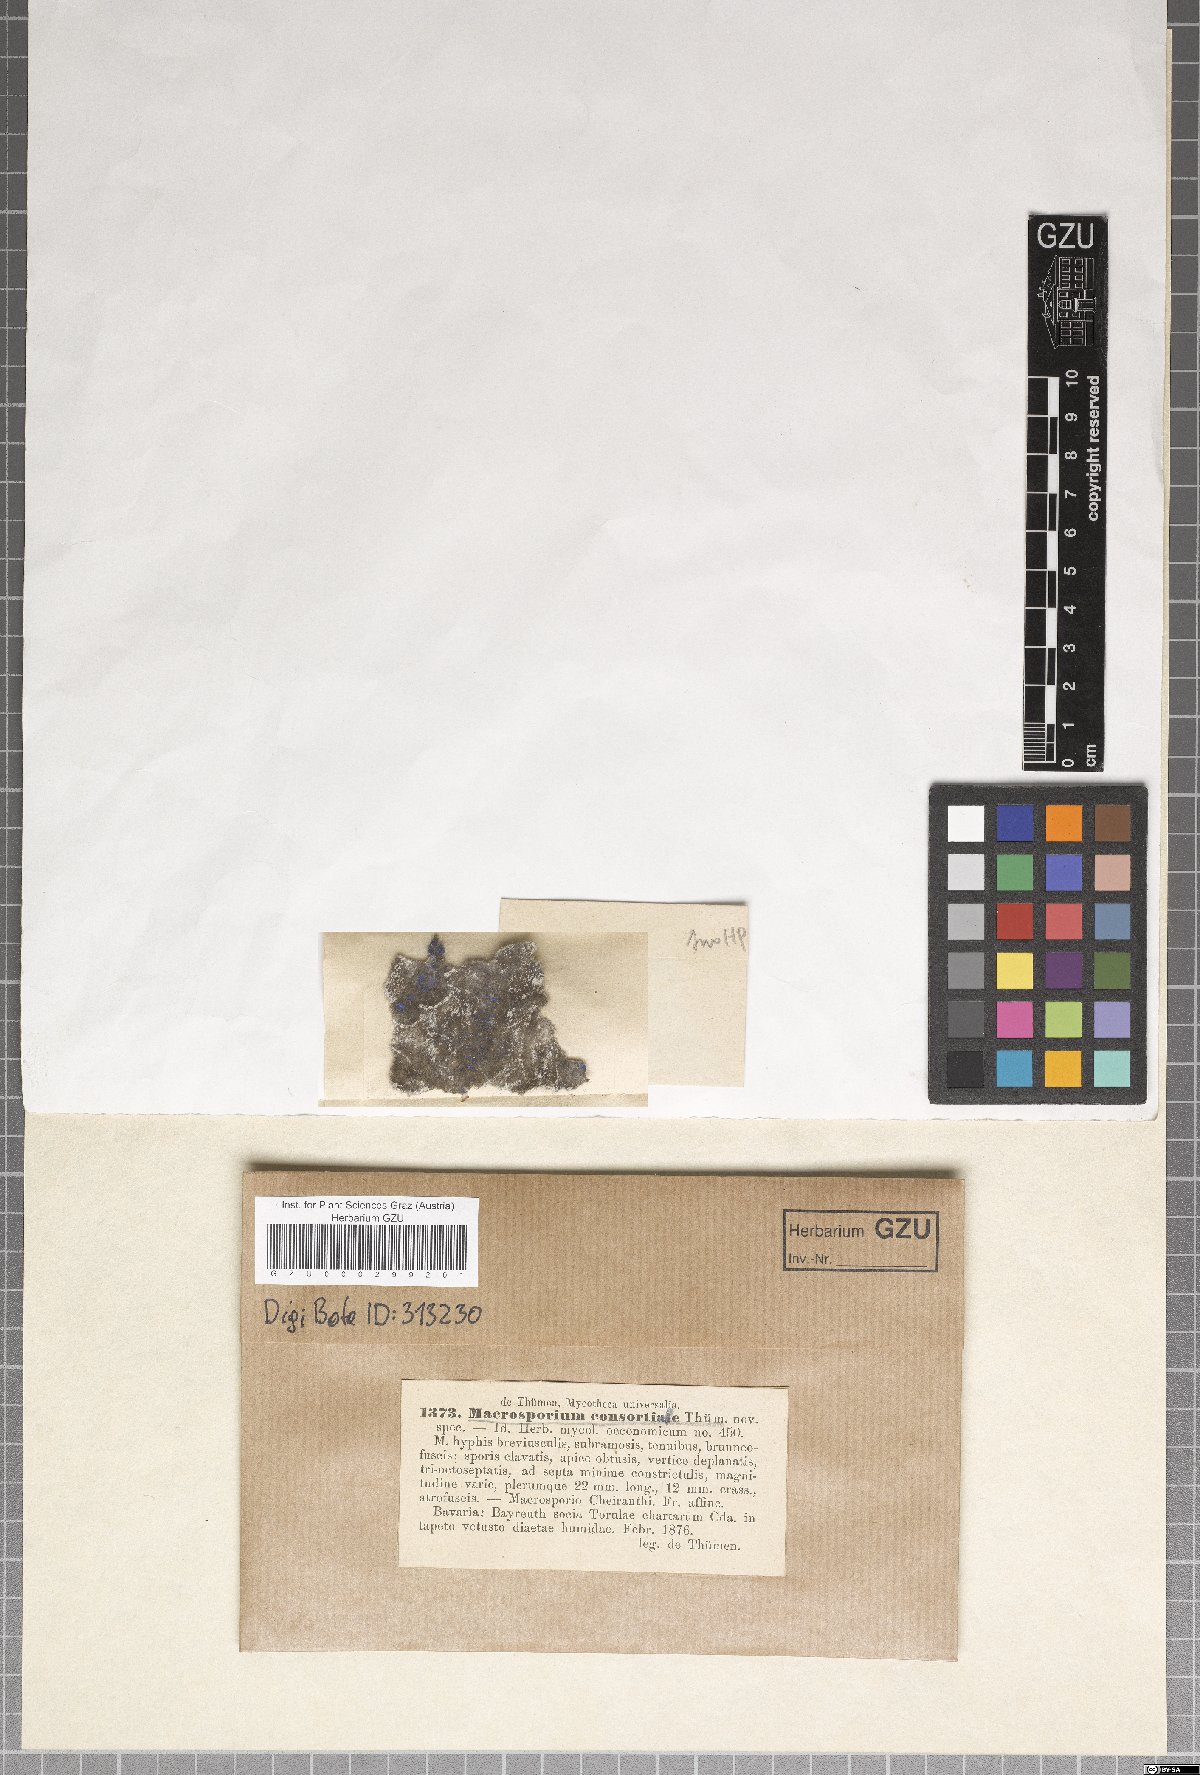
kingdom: Fungi
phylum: Ascomycota
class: Dothideomycetes
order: Pleosporales
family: Pleosporaceae
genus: Alternaria
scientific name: Alternaria consortialis
